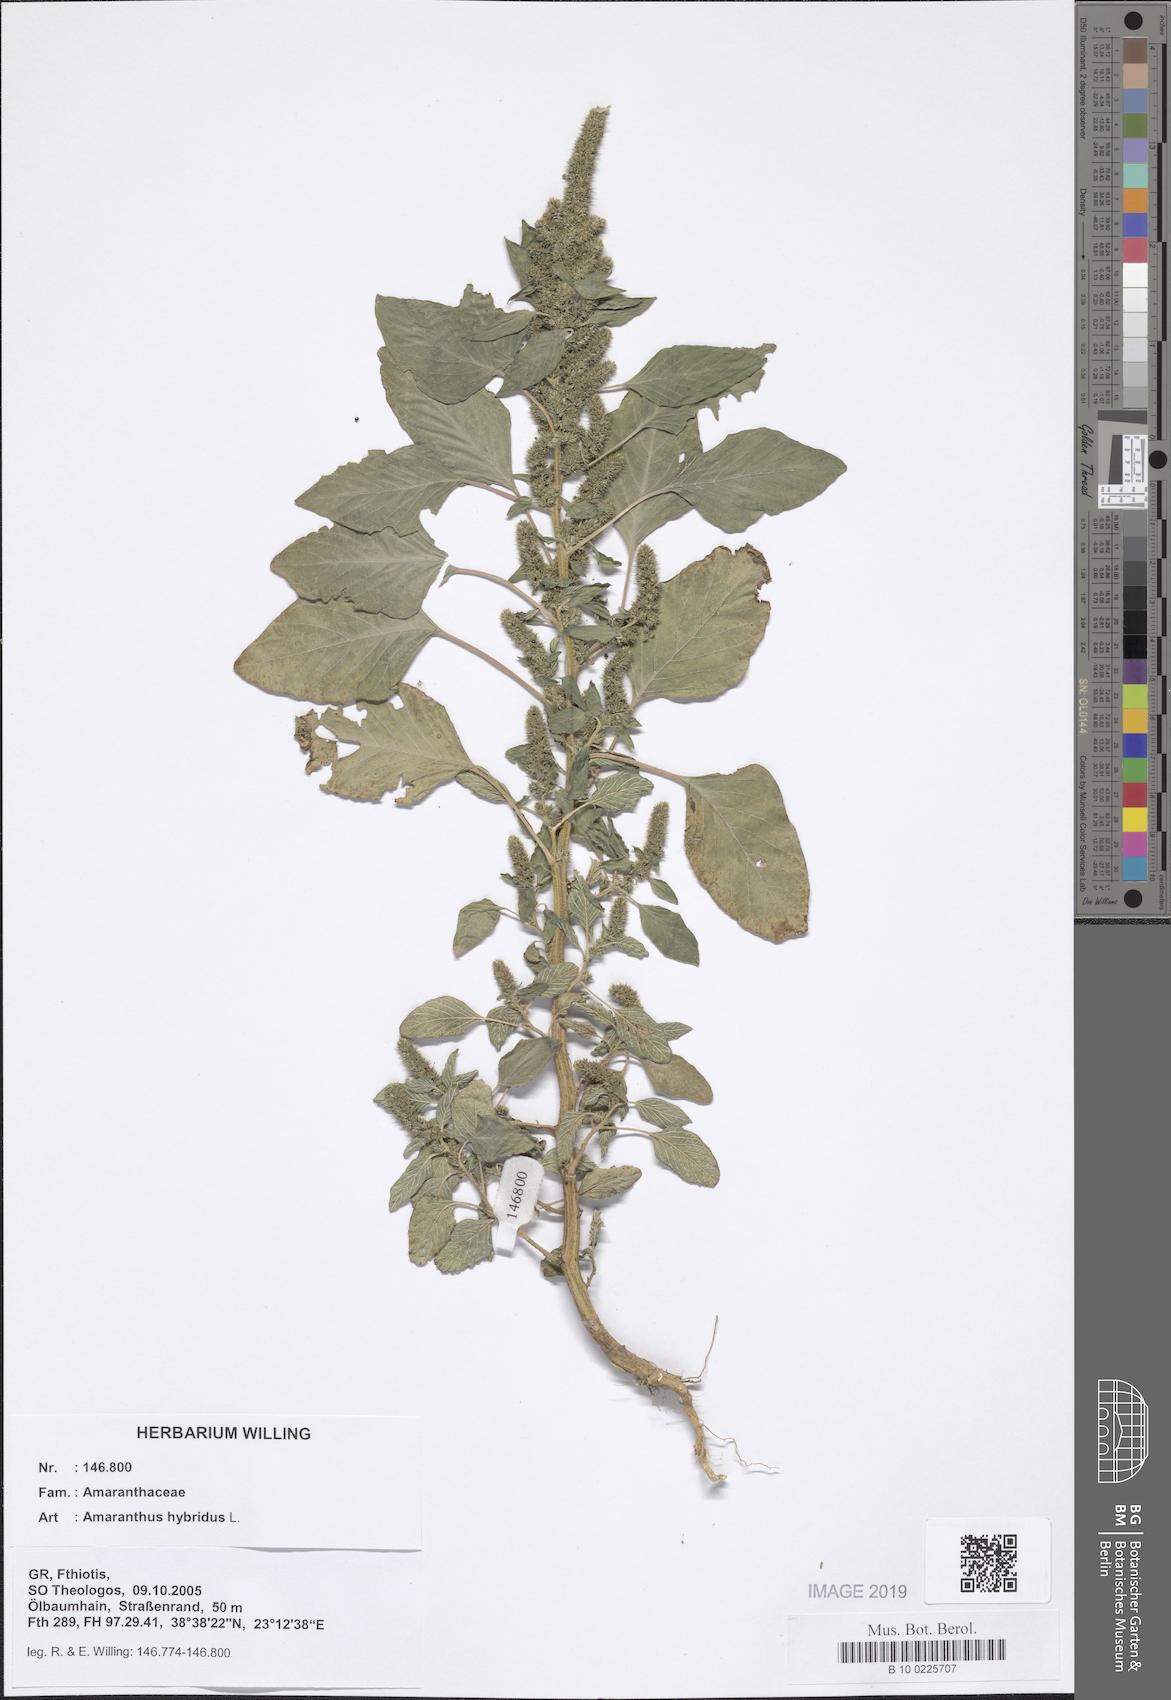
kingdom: Plantae
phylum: Tracheophyta
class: Magnoliopsida
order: Caryophyllales
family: Amaranthaceae
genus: Amaranthus
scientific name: Amaranthus hybridus
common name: Green amaranth
